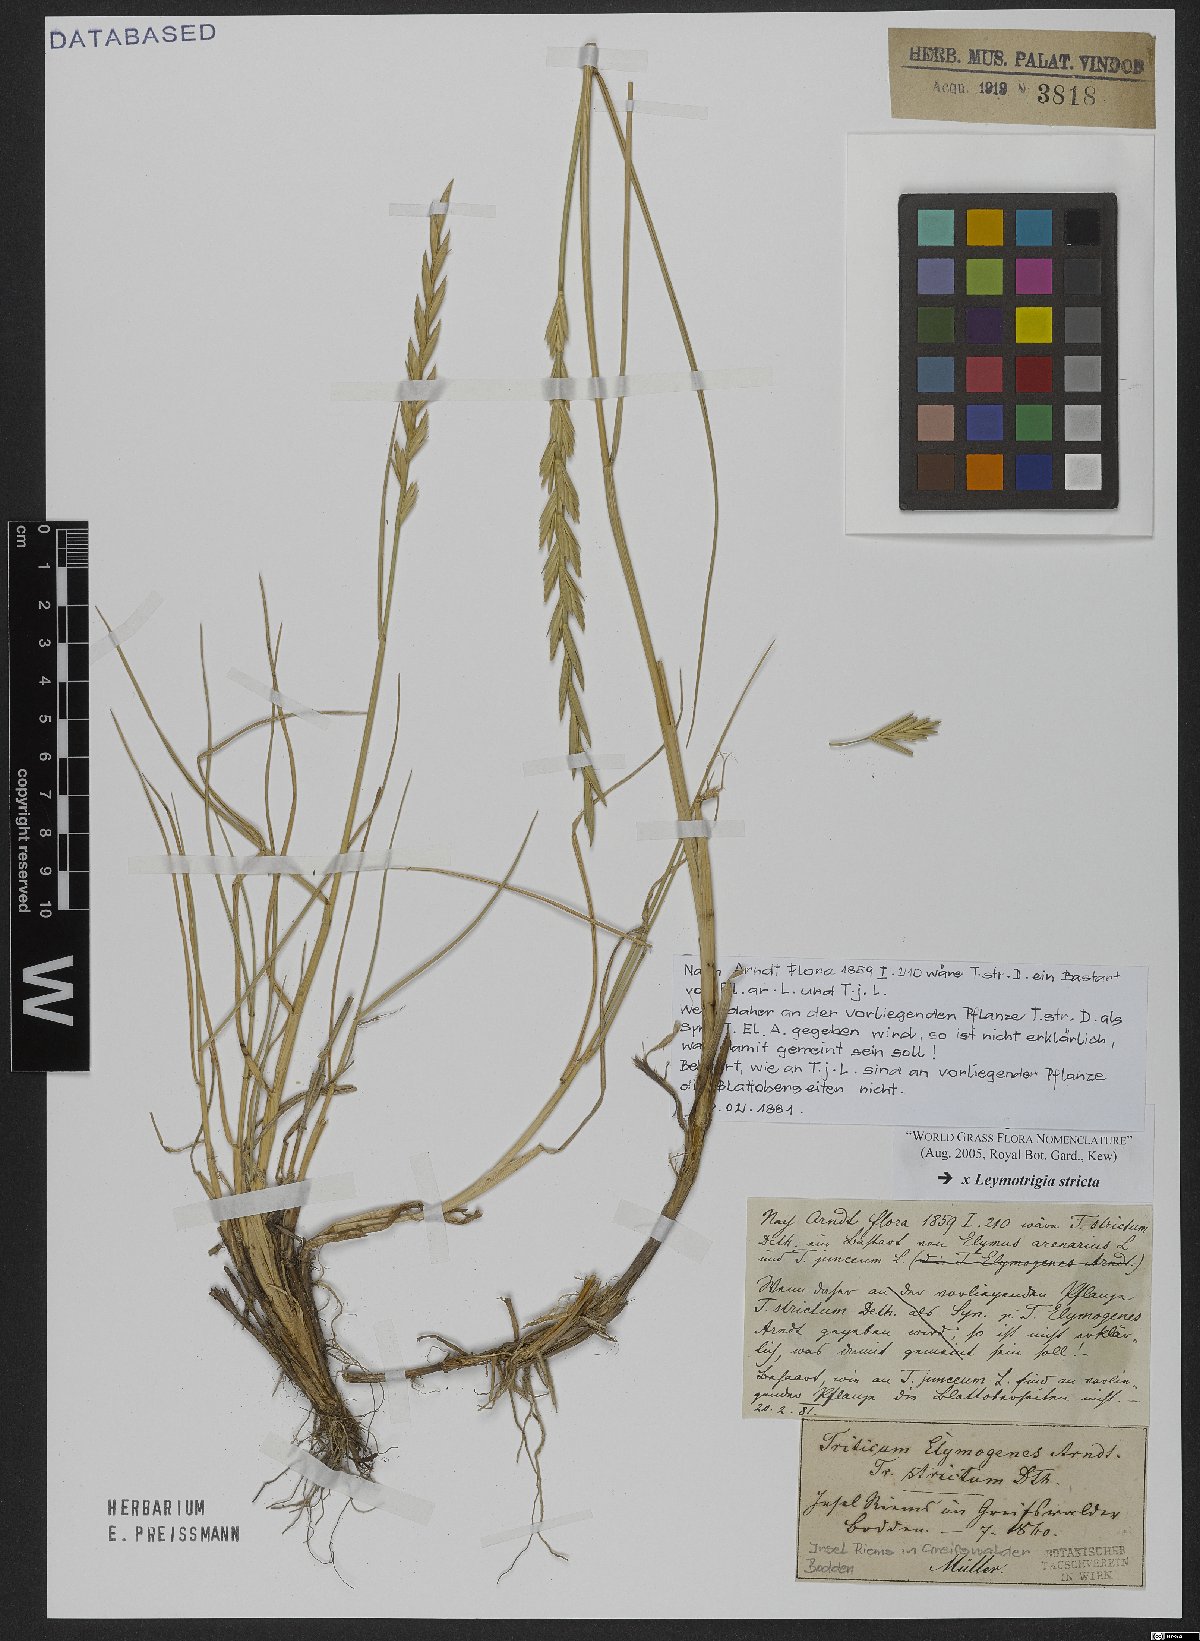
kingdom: Plantae
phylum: Tracheophyta
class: Liliopsida
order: Poales
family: Poaceae
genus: Elyleymus
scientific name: Elyleymus strictus
